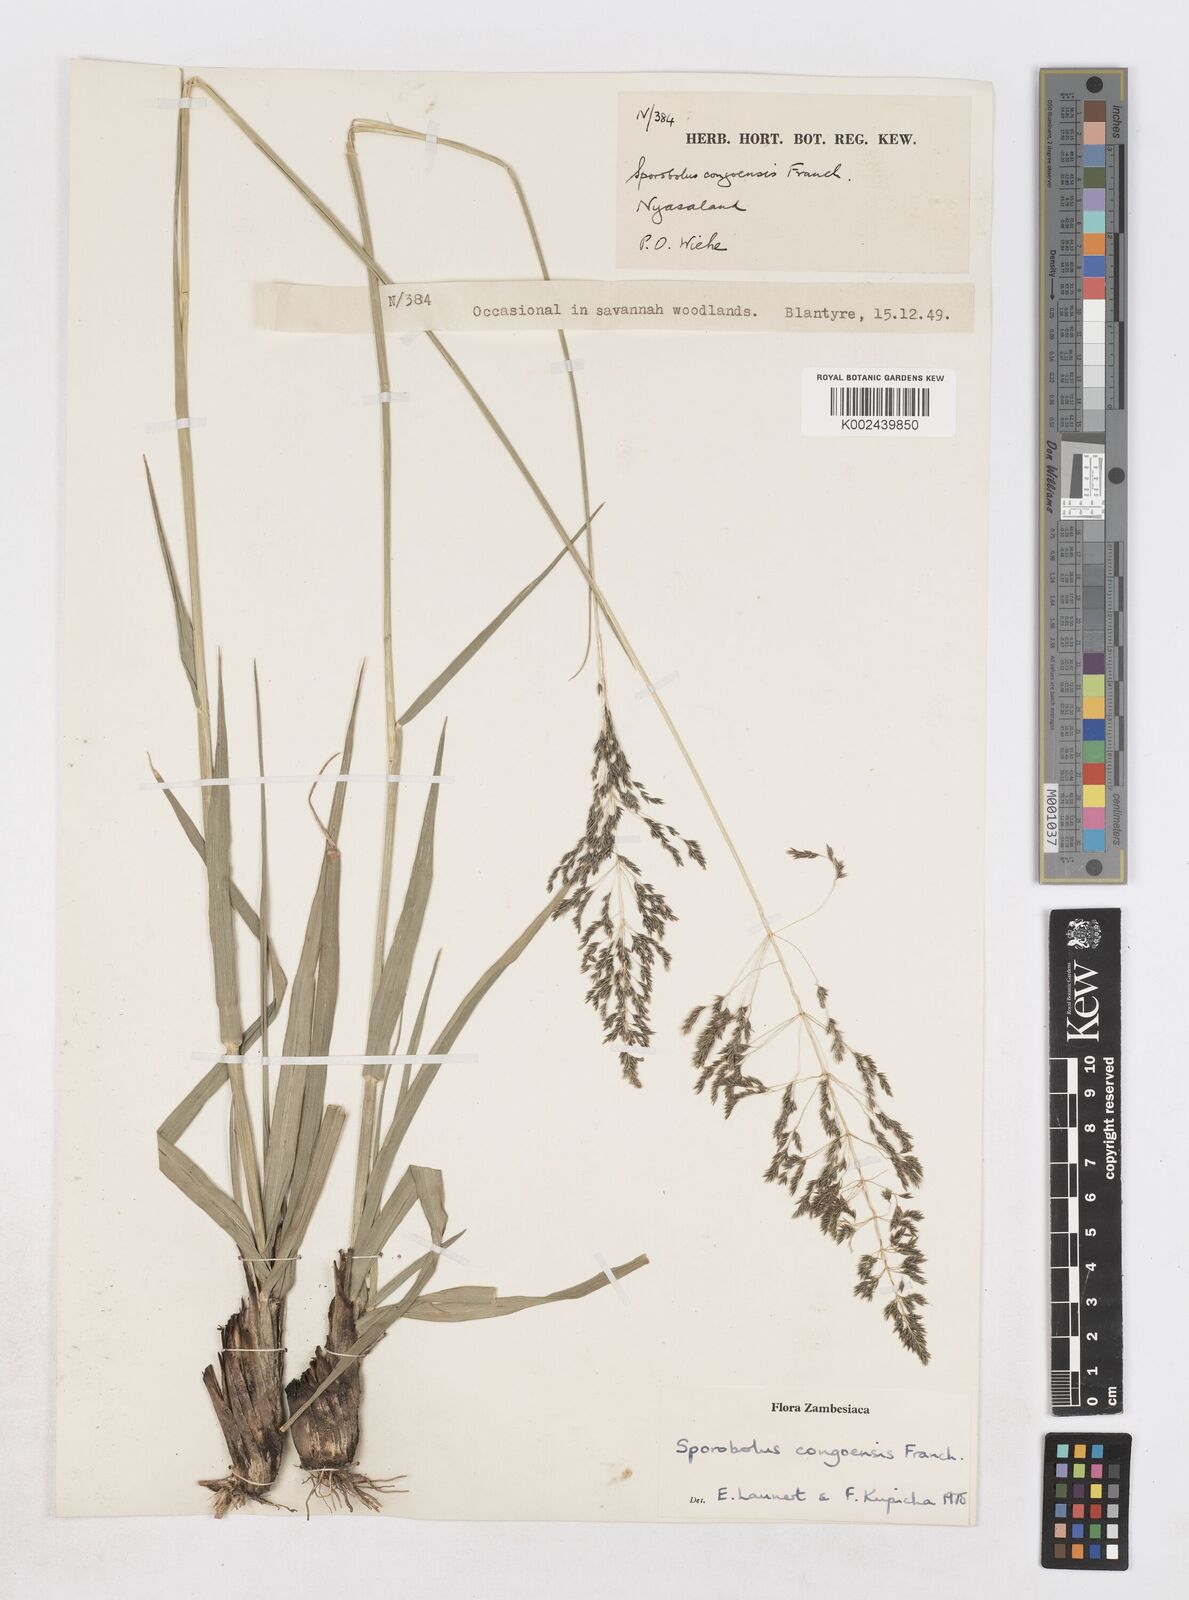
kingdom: Plantae
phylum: Tracheophyta
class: Liliopsida
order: Poales
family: Poaceae
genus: Sporobolus
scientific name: Sporobolus congoensis
